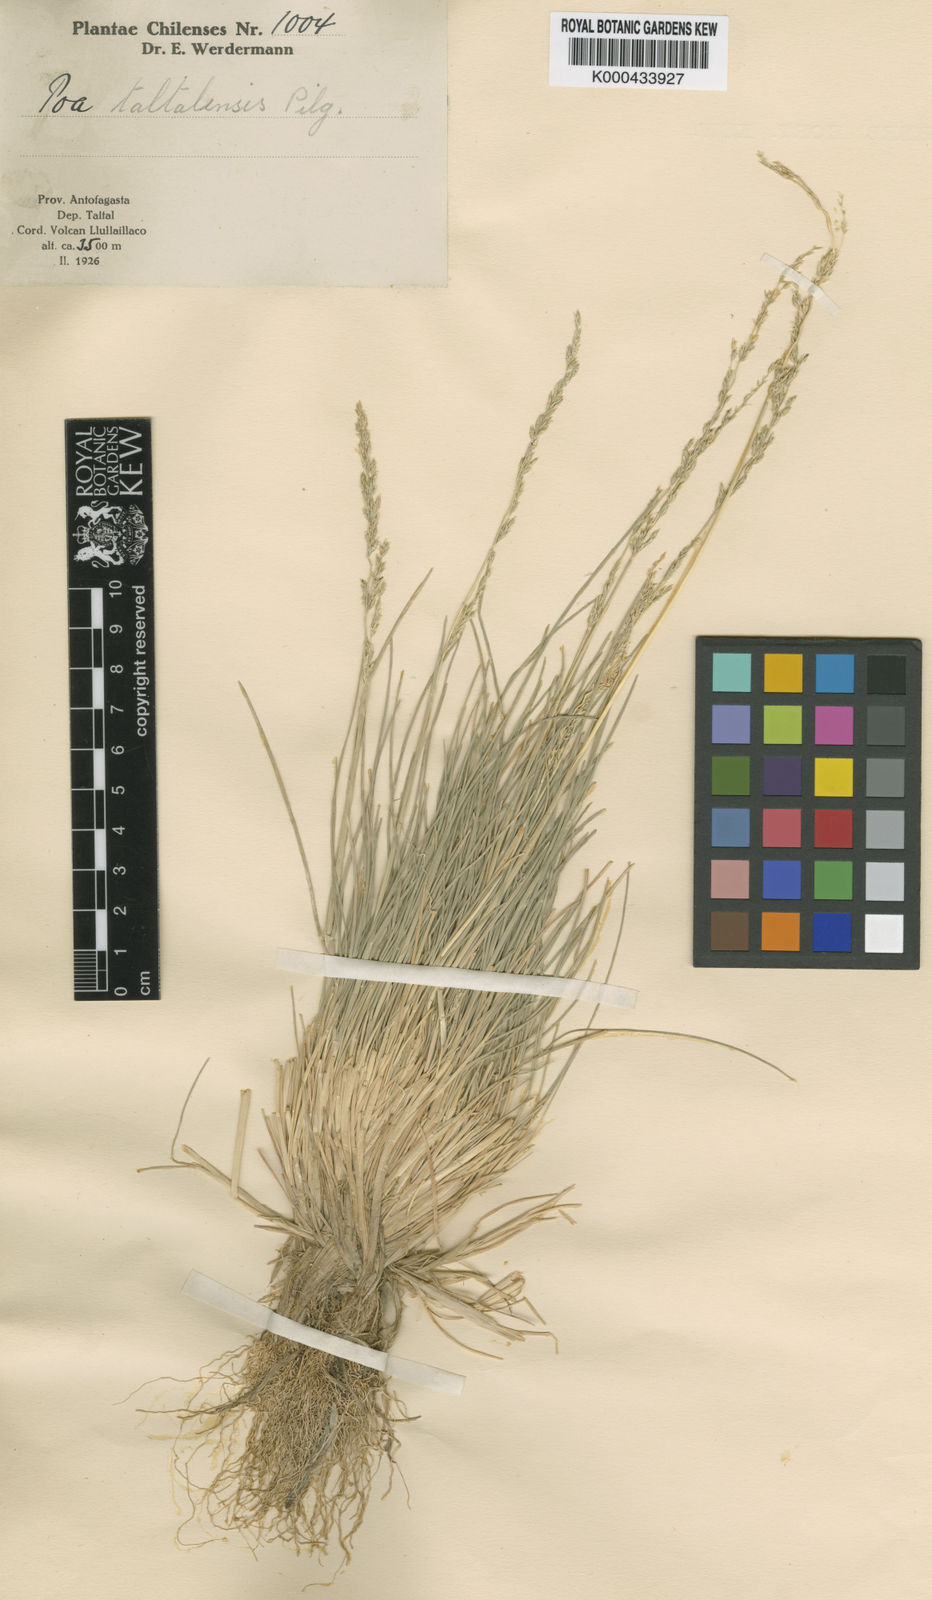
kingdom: Plantae
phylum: Tracheophyta
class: Liliopsida
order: Poales
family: Poaceae
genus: Puccinellia
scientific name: Puccinellia frigida
